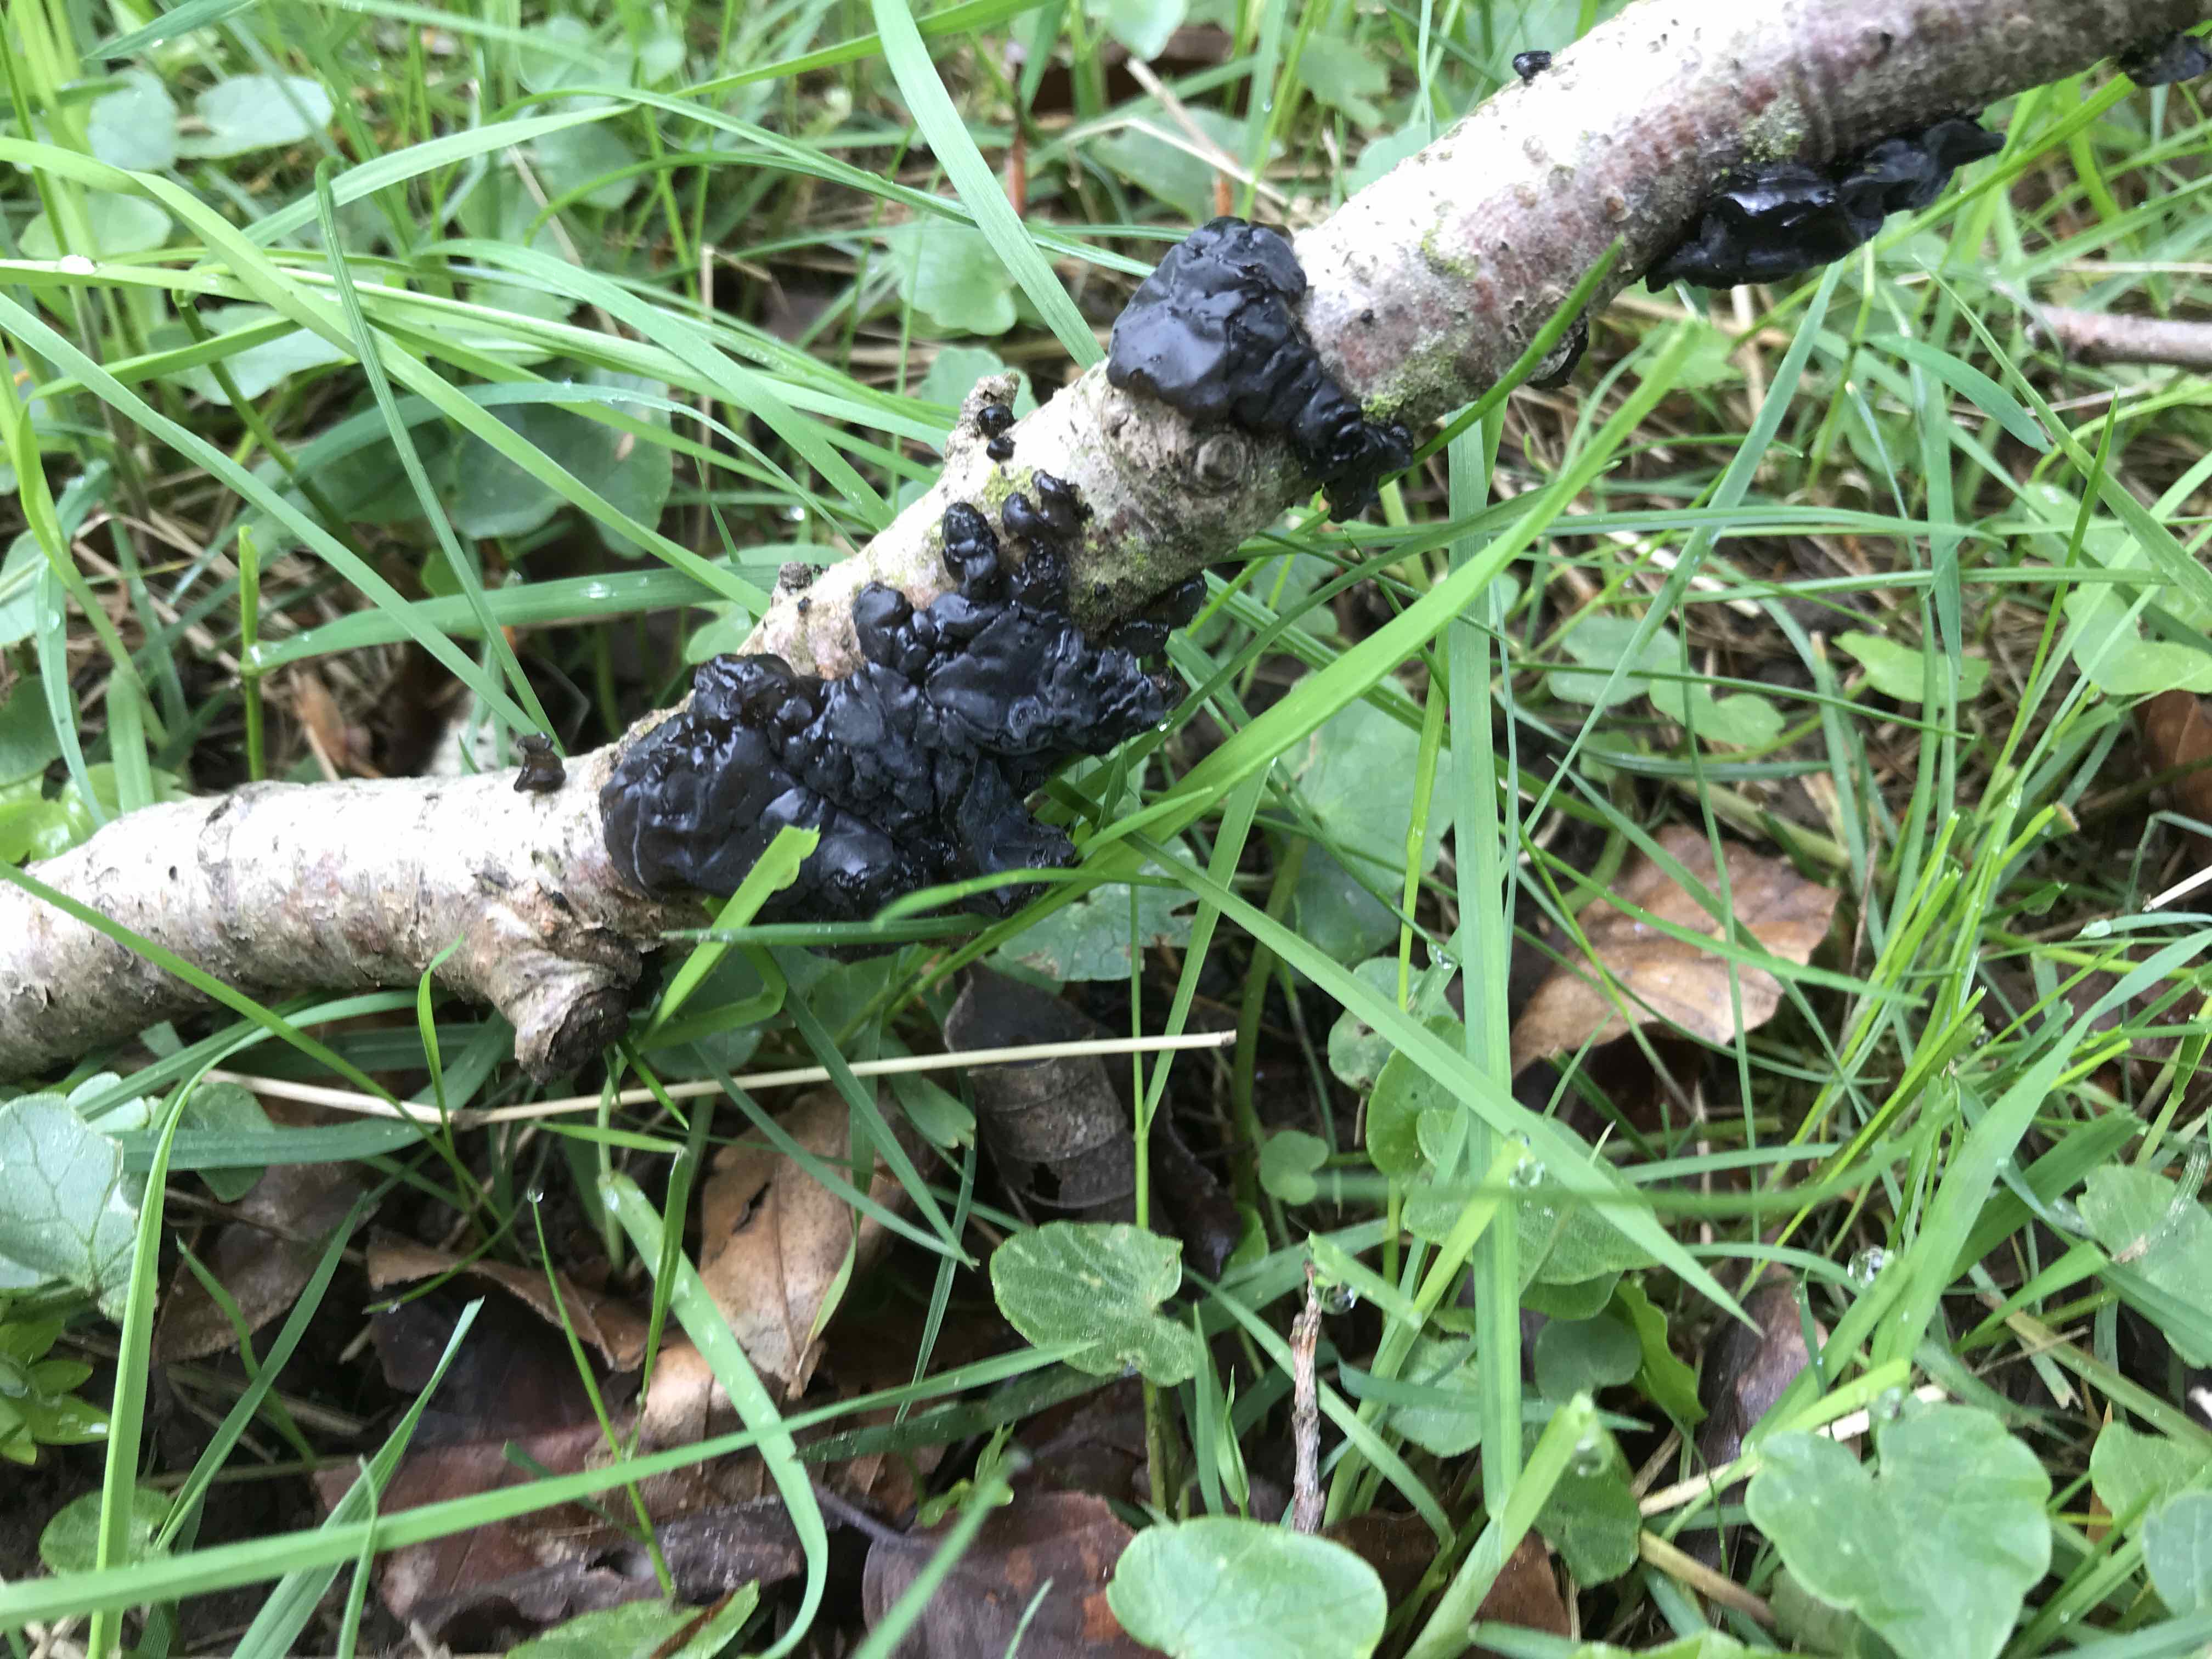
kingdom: Fungi
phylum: Basidiomycota
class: Agaricomycetes
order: Auriculariales
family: Auriculariaceae
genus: Exidia
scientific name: Exidia nigricans
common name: almindelig bævretop
